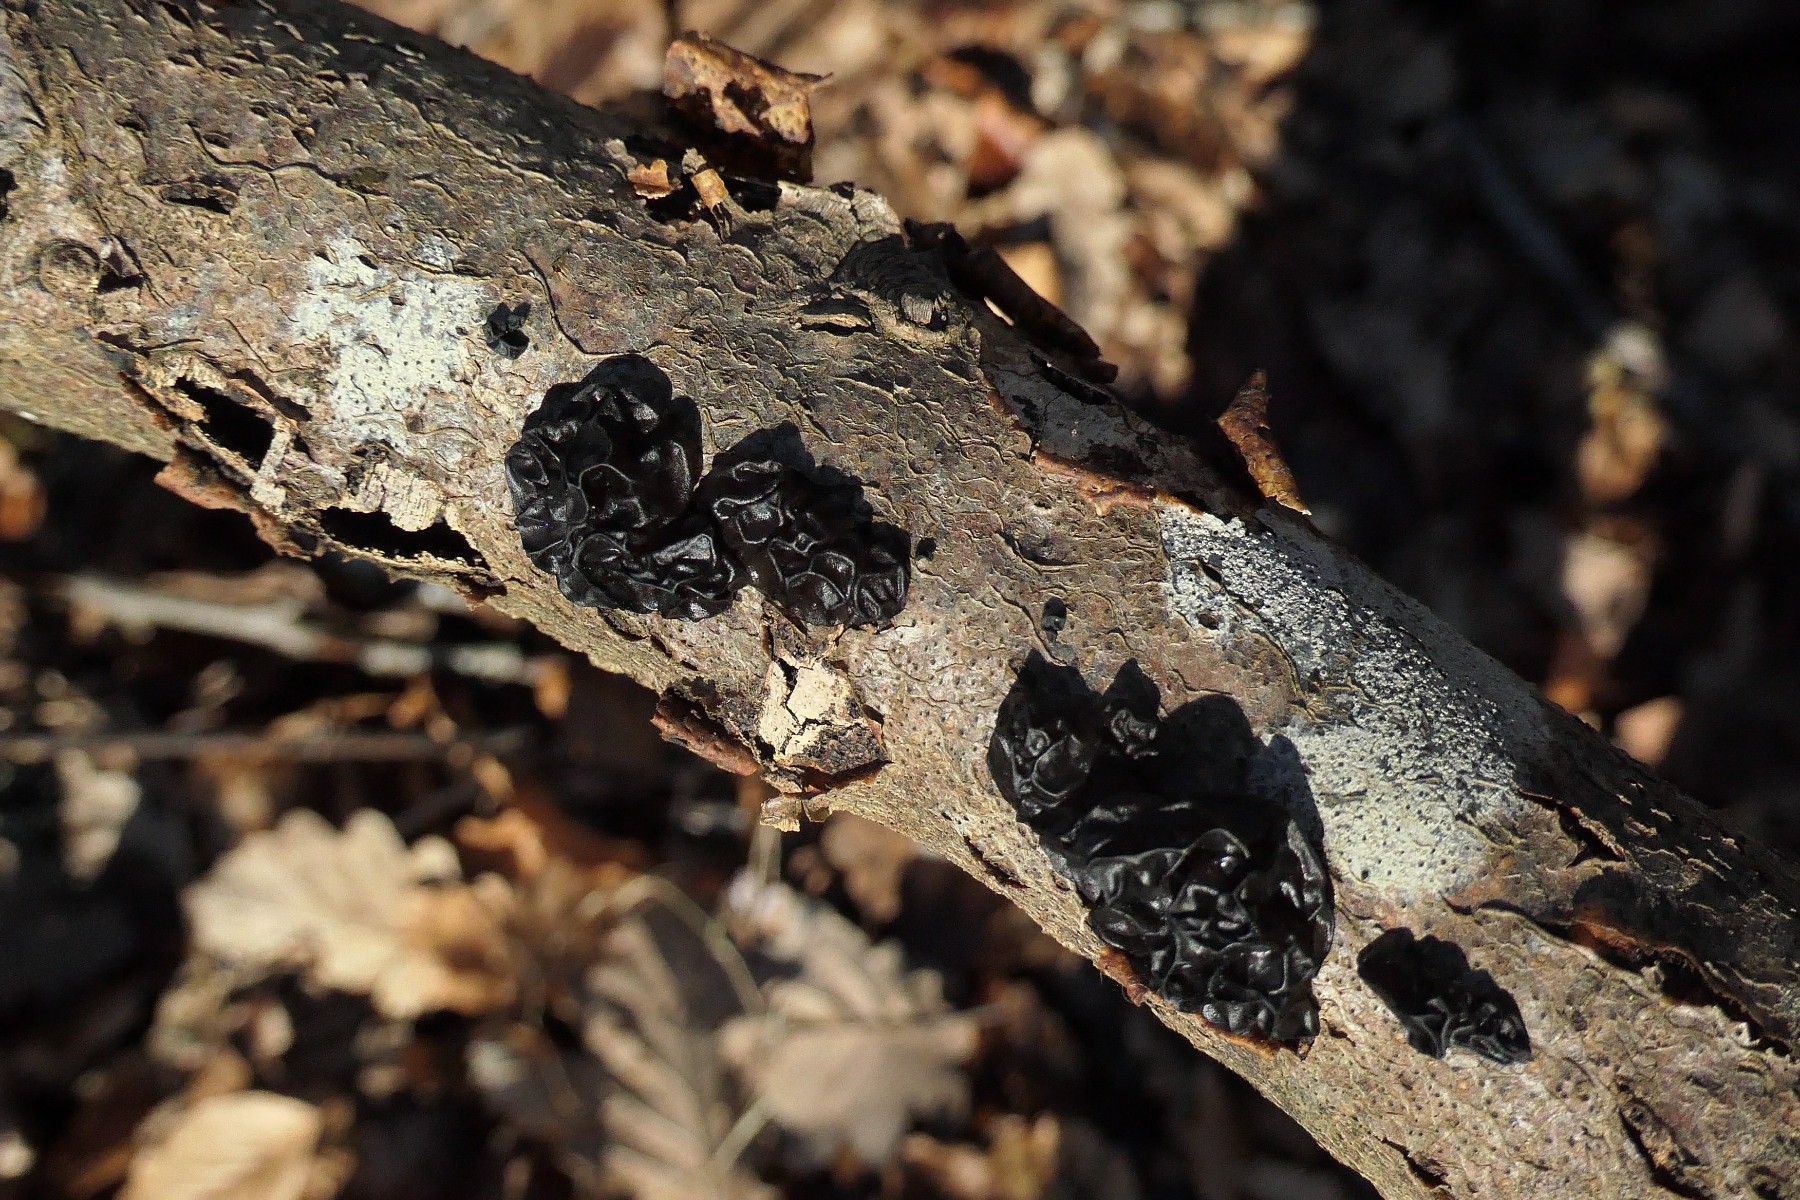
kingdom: Fungi
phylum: Basidiomycota
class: Agaricomycetes
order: Auriculariales
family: Auriculariaceae
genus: Exidia
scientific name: Exidia nigricans
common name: almindelig bævretop
